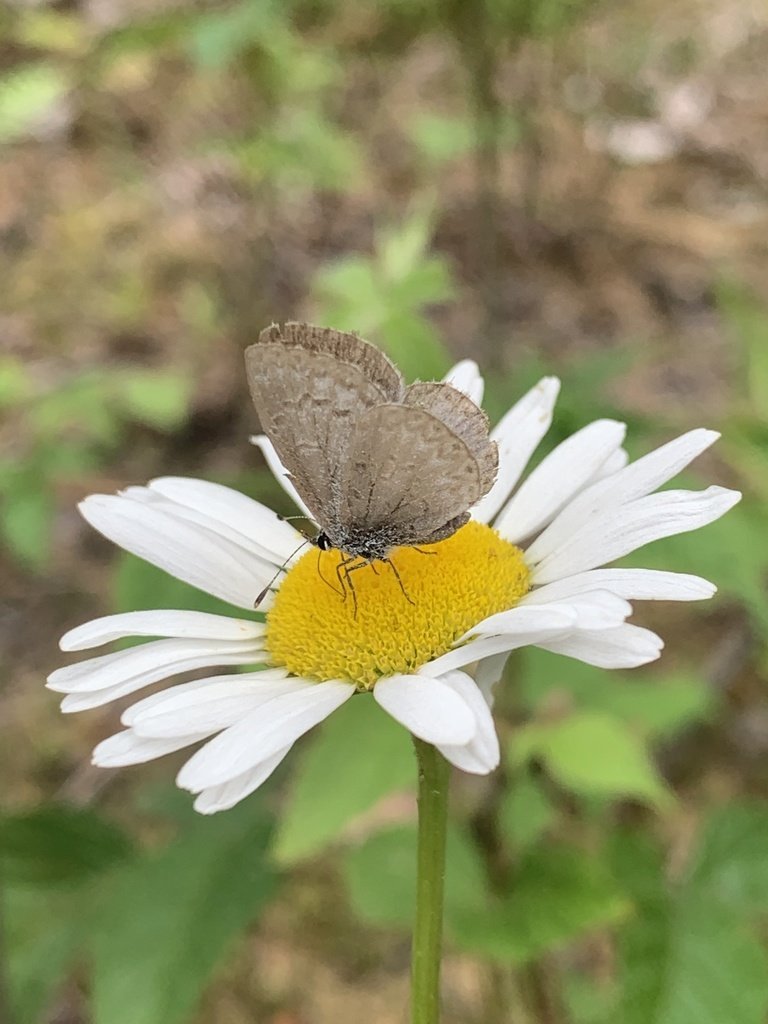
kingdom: Animalia
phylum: Arthropoda
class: Insecta
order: Lepidoptera
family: Lycaenidae
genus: Celastrina
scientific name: Celastrina lucia
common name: Northern Spring Azure
